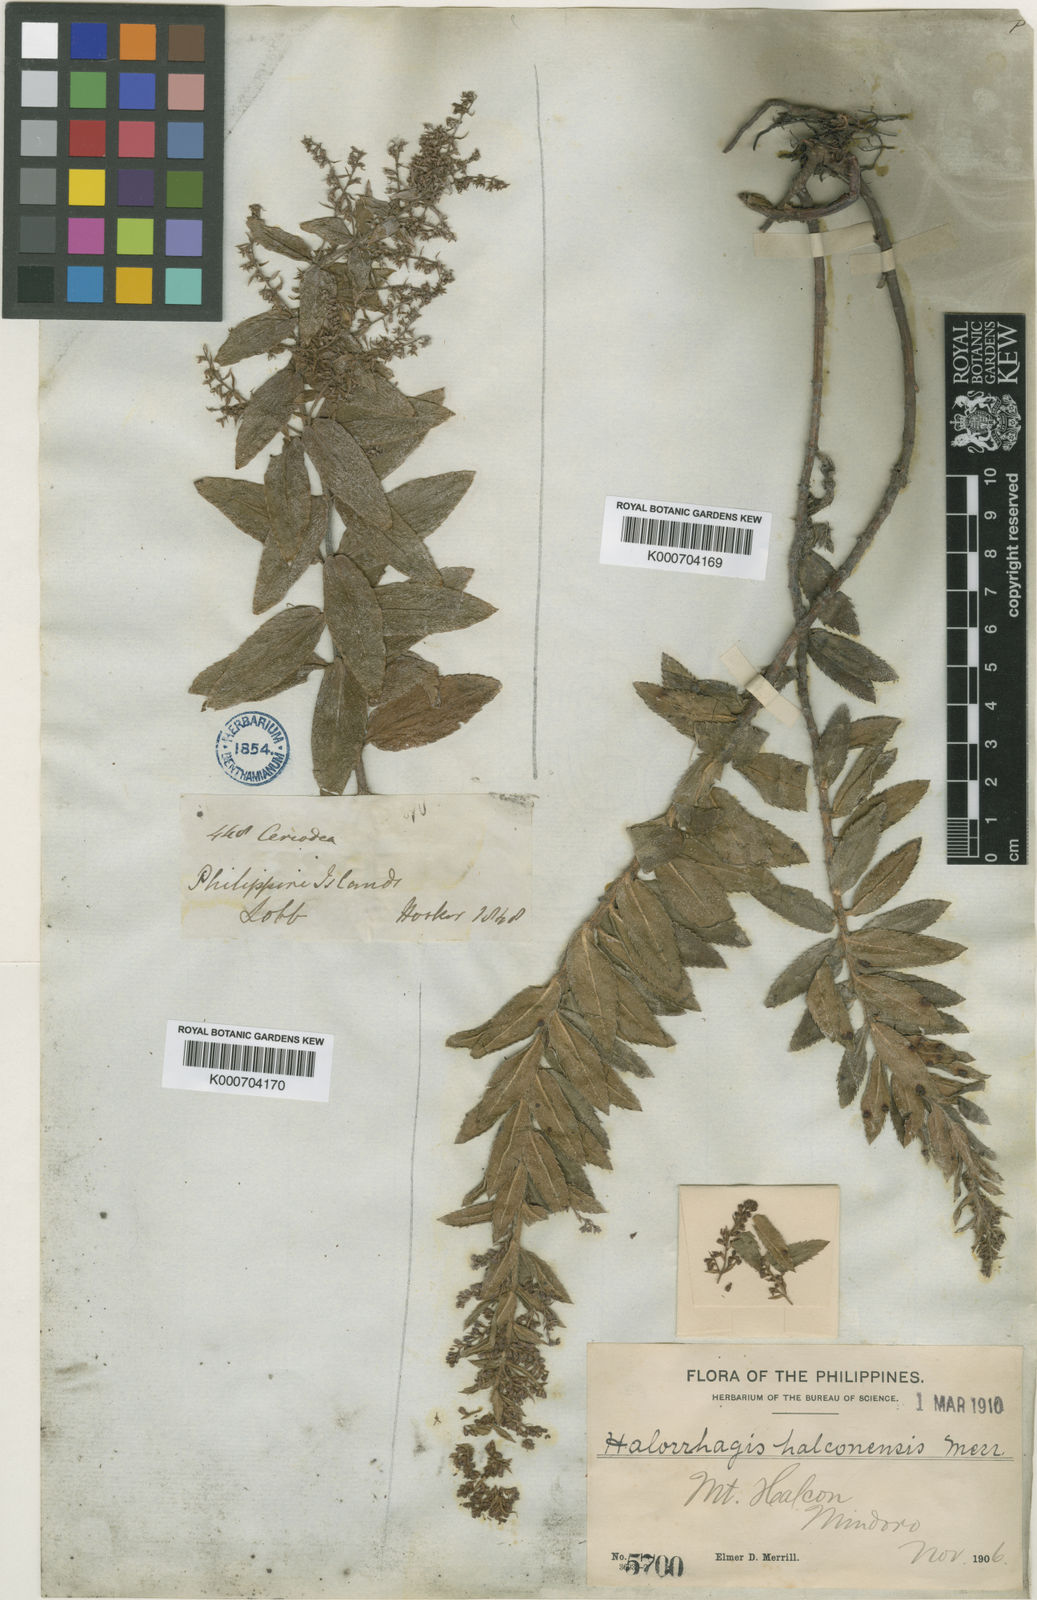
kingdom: Plantae
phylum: Tracheophyta
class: Magnoliopsida
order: Saxifragales
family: Haloragaceae
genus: Gonocarpus
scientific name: Gonocarpus halconensis
